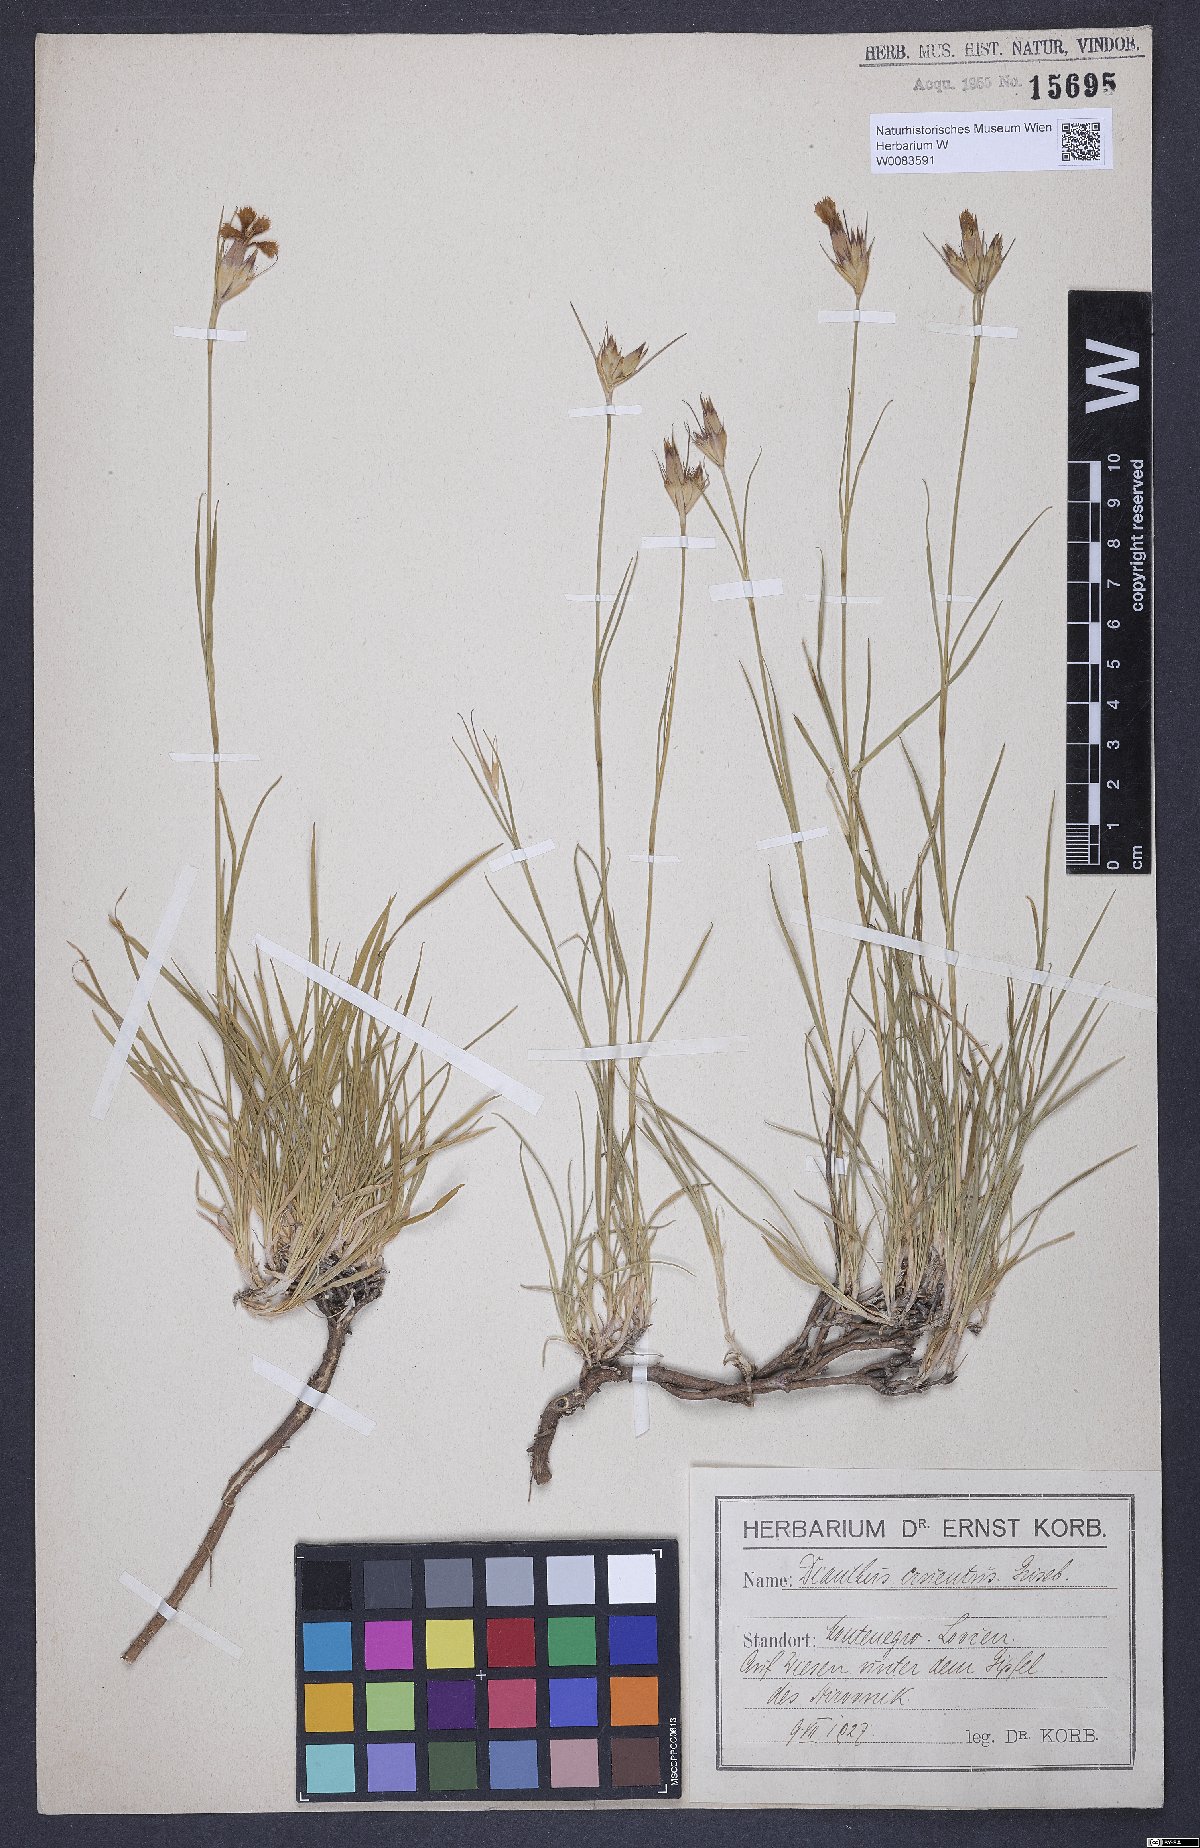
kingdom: Plantae
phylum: Tracheophyta
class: Magnoliopsida
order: Caryophyllales
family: Caryophyllaceae
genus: Dianthus
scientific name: Dianthus cruentus
